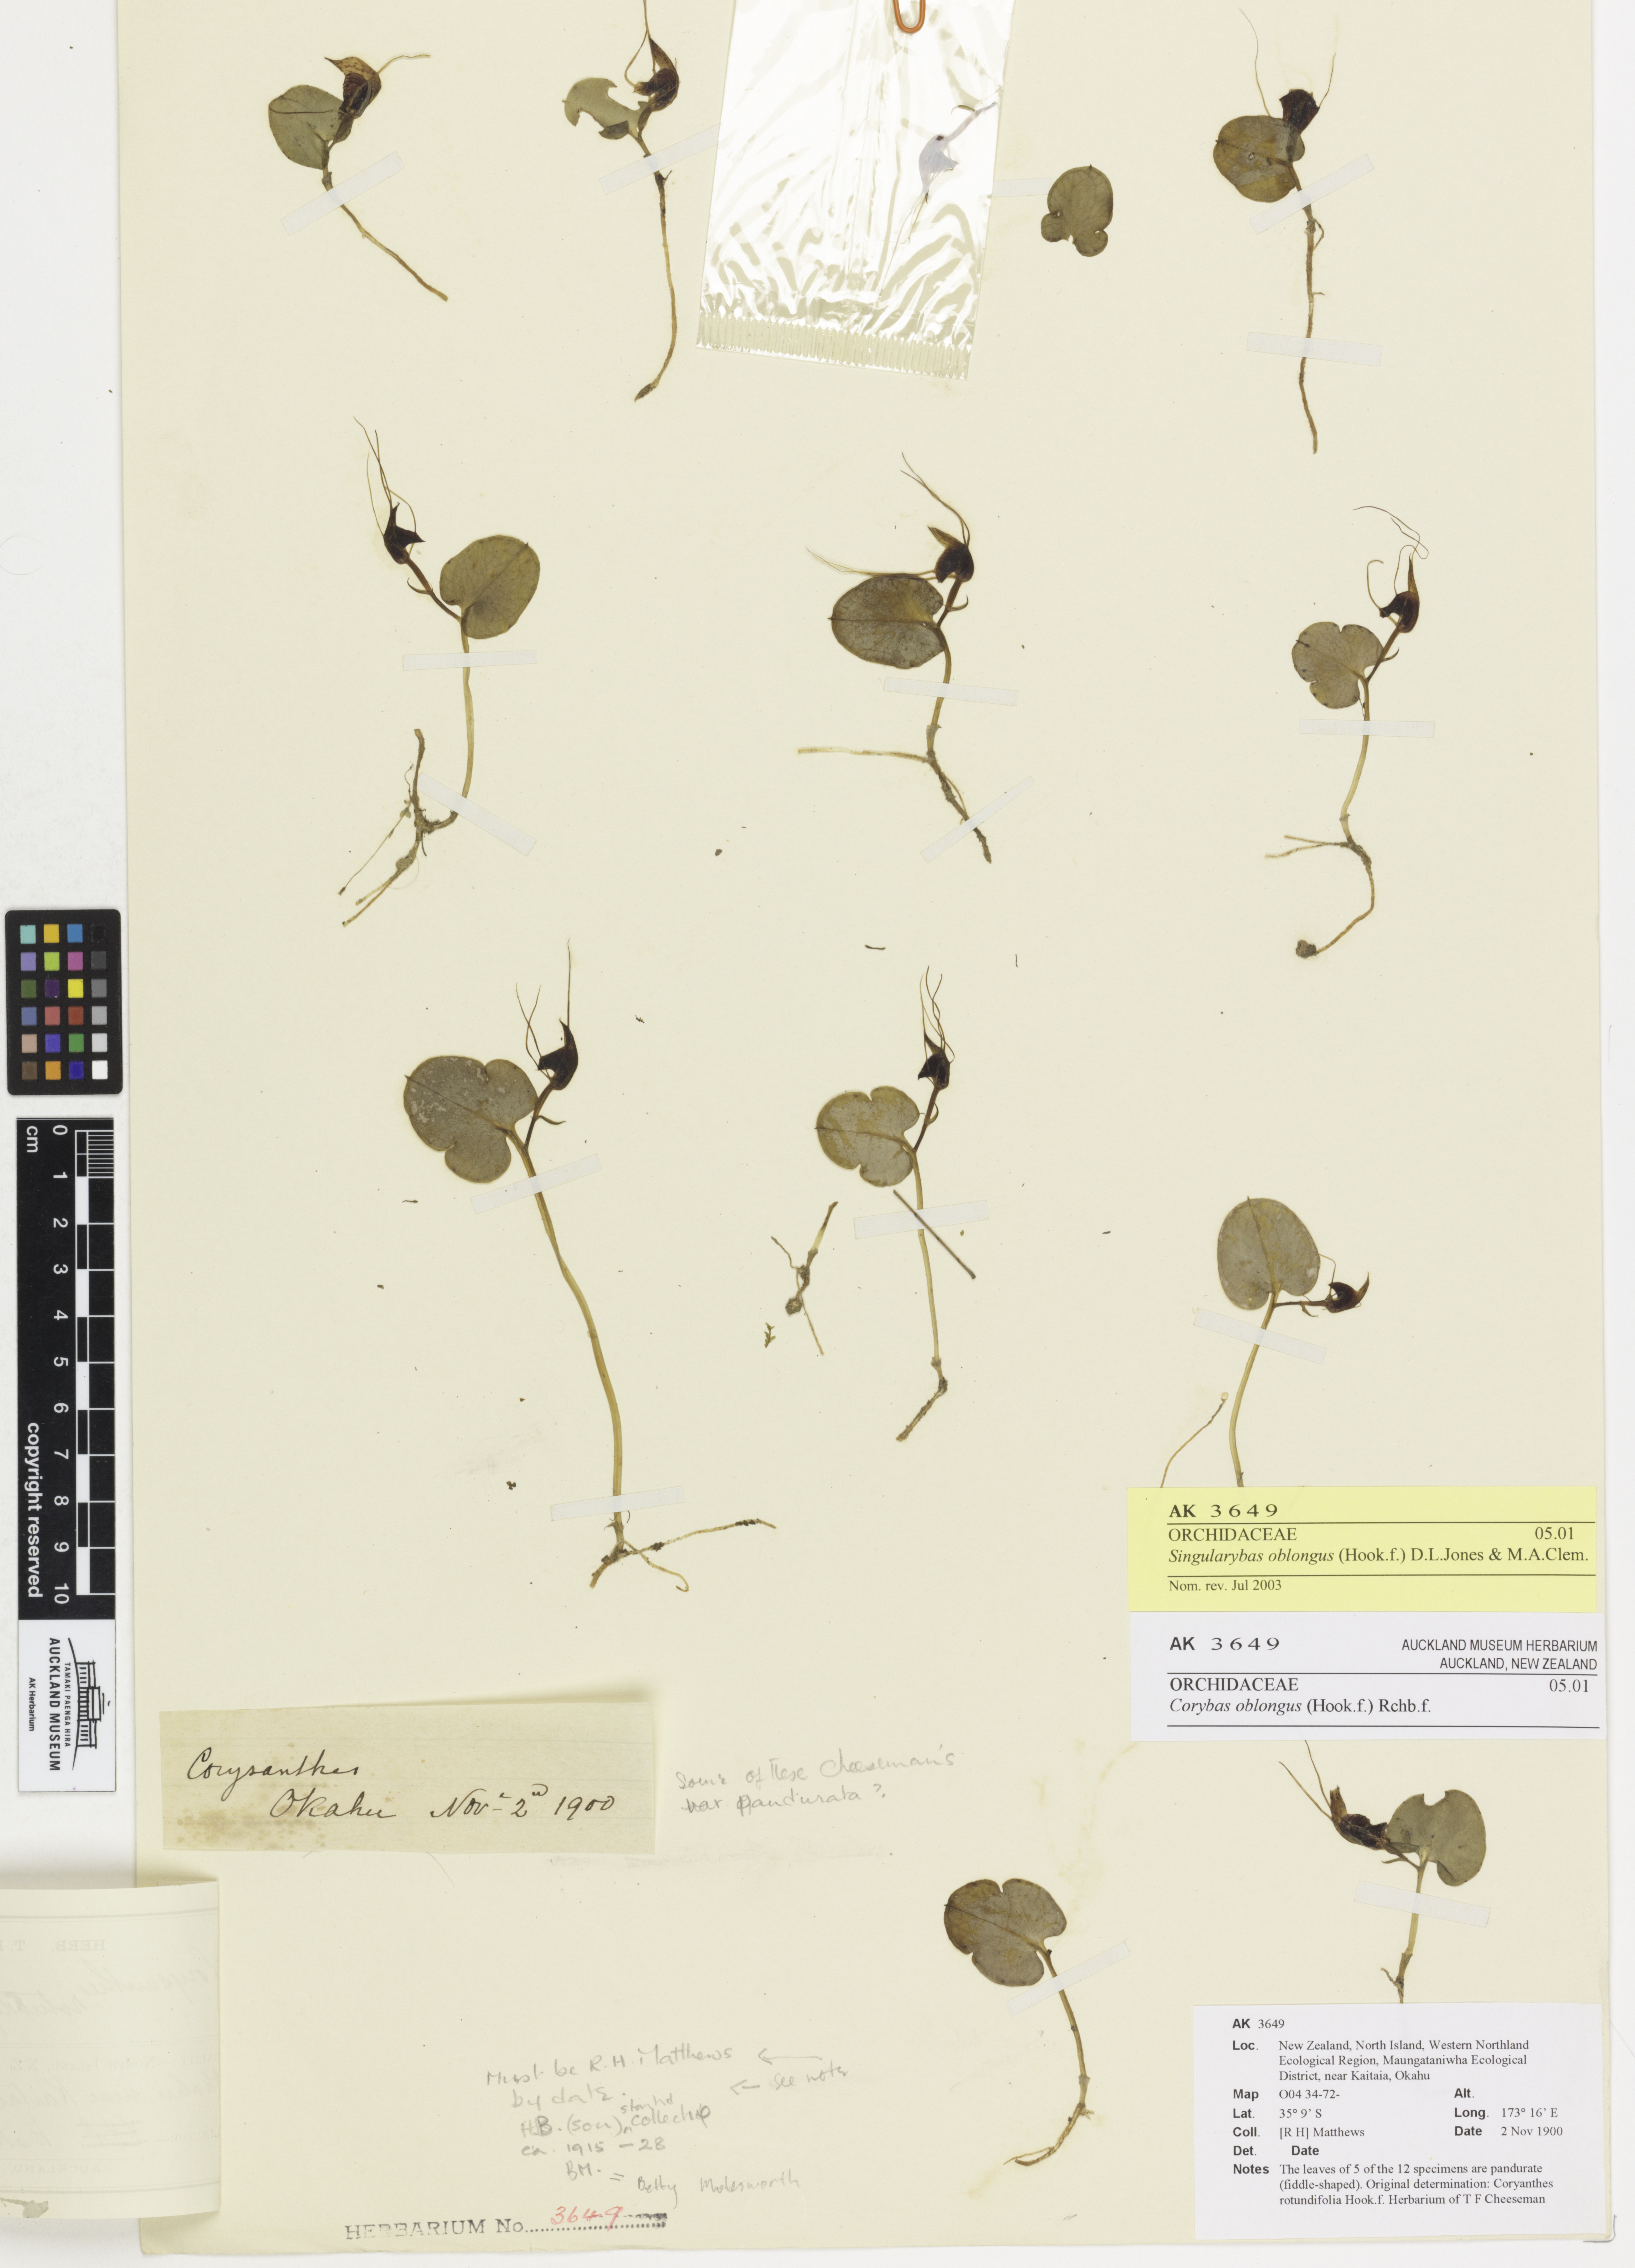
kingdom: Plantae
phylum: Tracheophyta
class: Liliopsida
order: Asparagales
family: Orchidaceae
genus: Corybas
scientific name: Corybas oblongus
